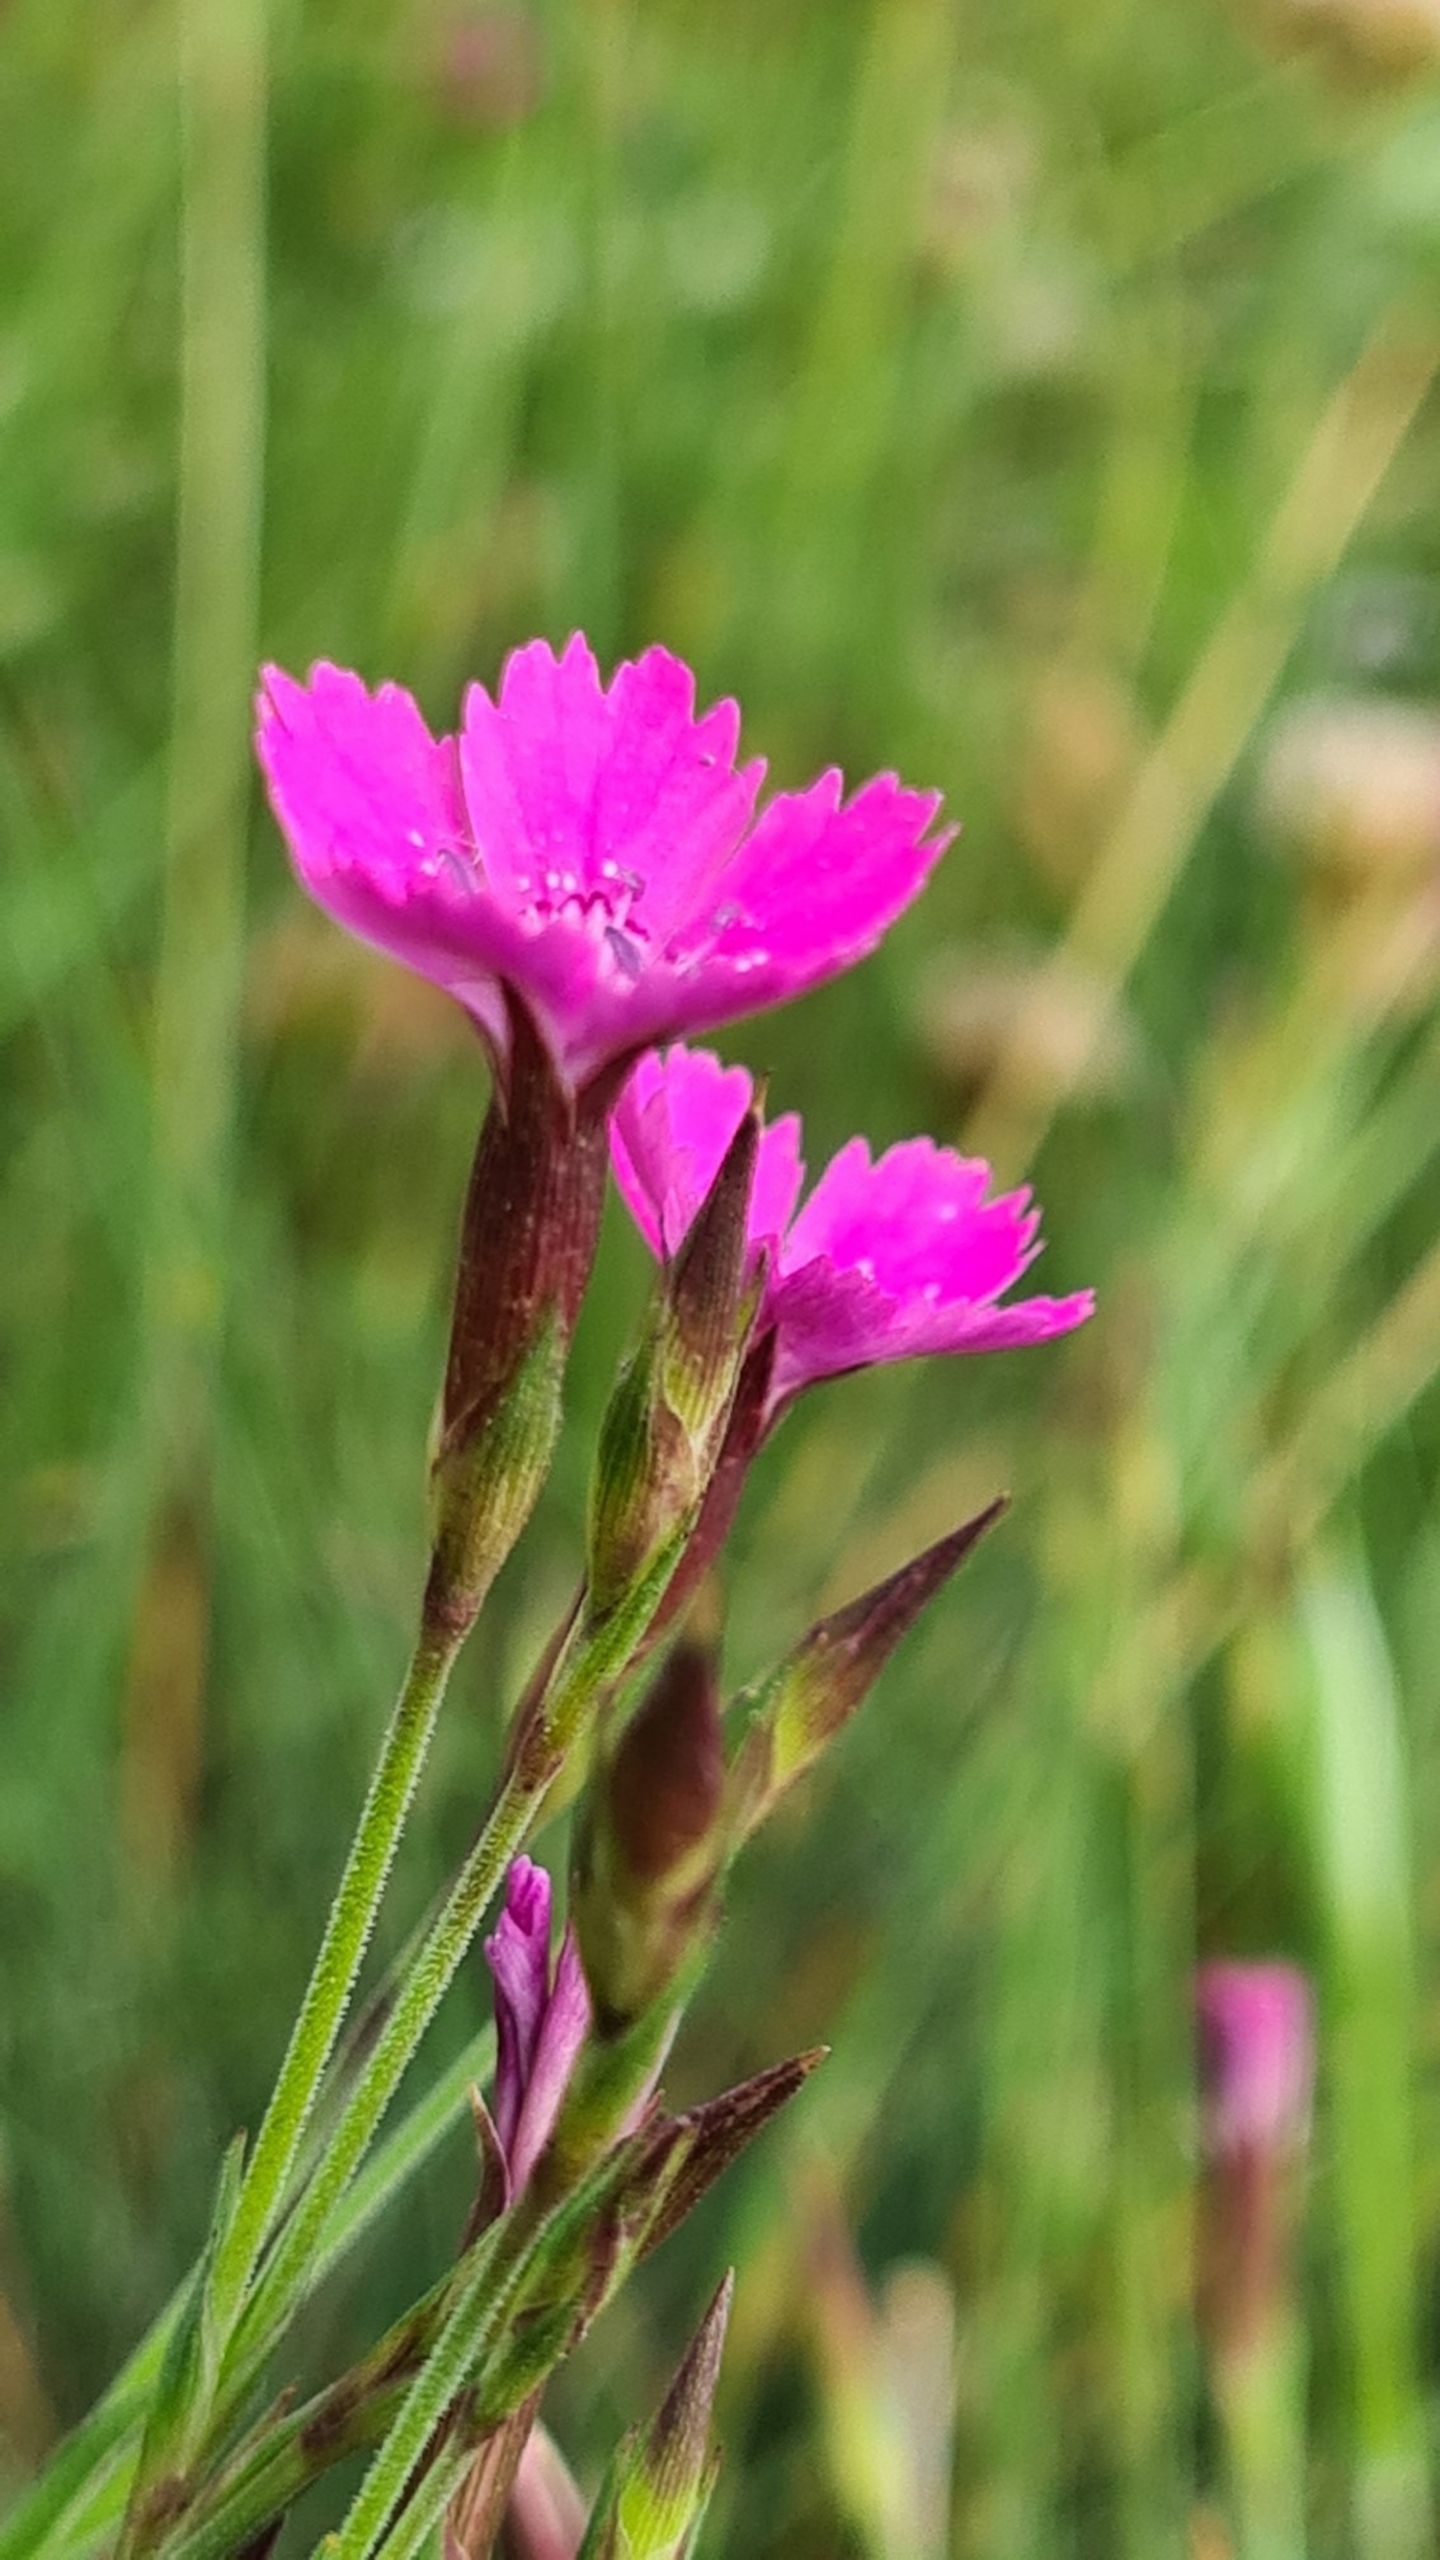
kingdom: Plantae
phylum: Tracheophyta
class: Magnoliopsida
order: Caryophyllales
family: Caryophyllaceae
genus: Dianthus
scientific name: Dianthus deltoides
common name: Bakke-nellike
